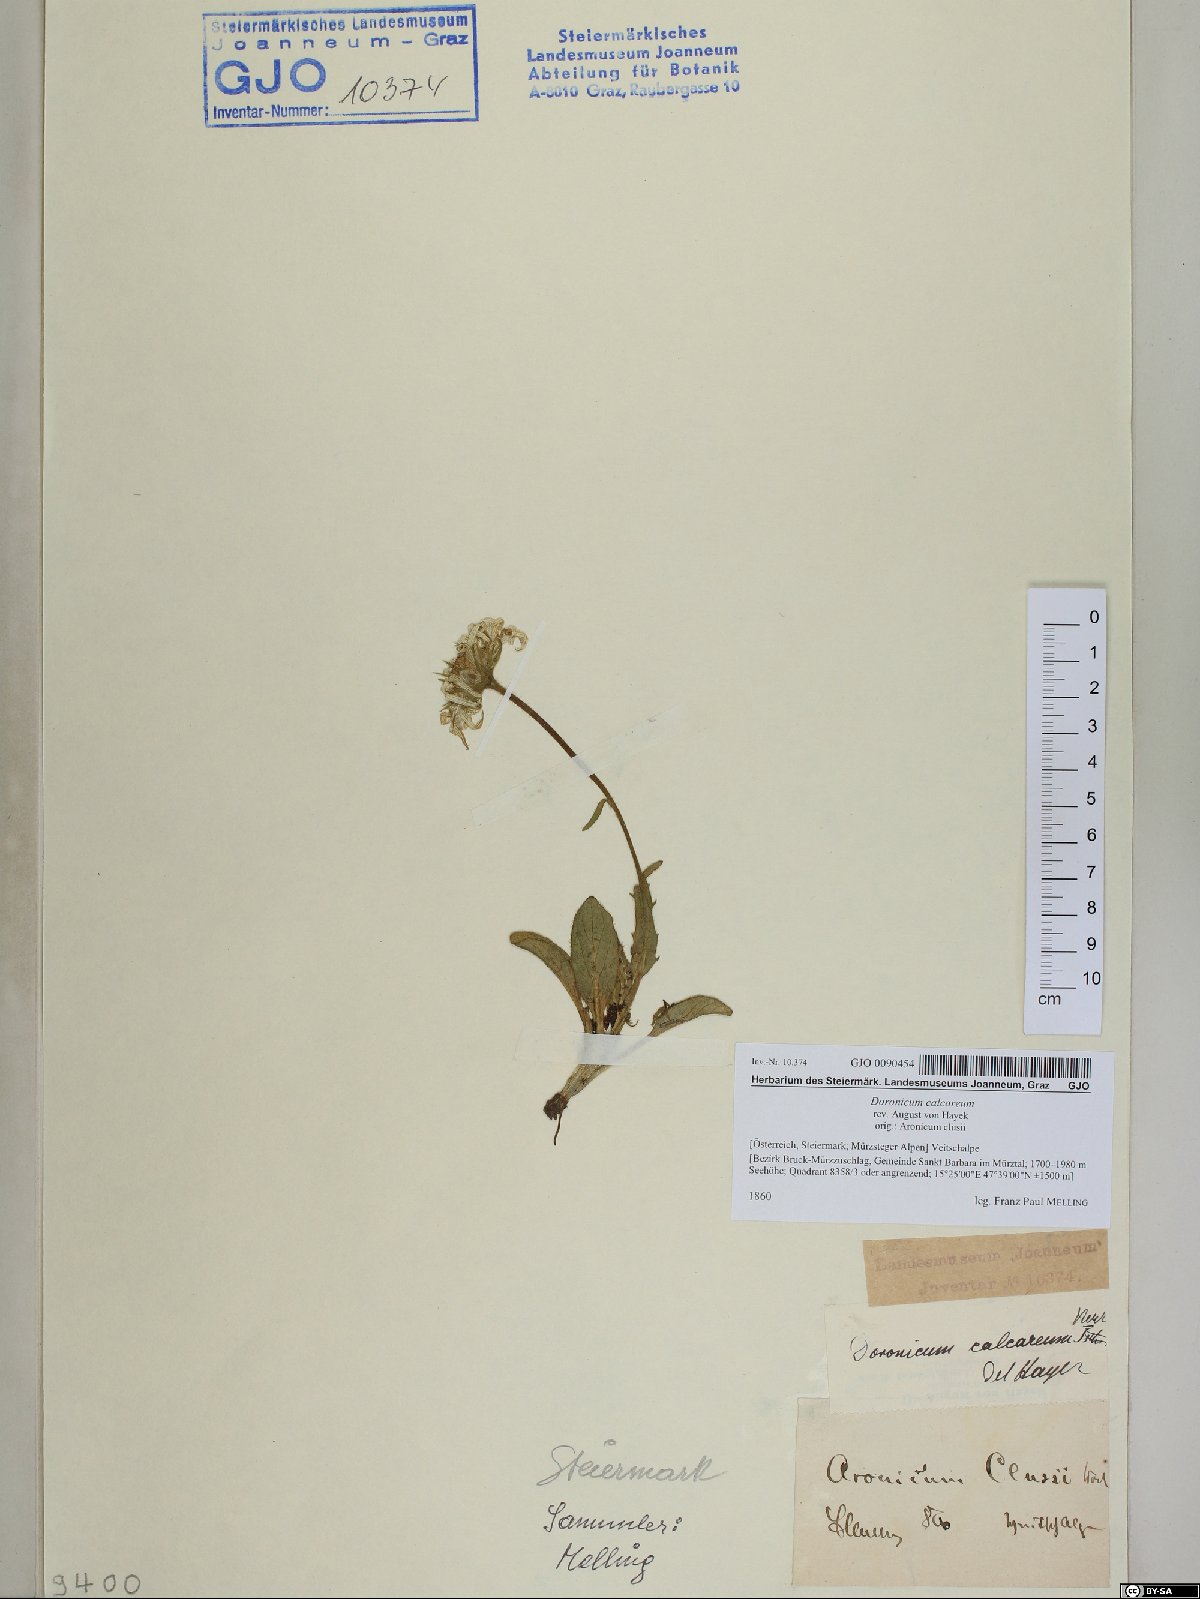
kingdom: Plantae
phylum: Tracheophyta
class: Magnoliopsida
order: Asterales
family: Asteraceae
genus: Doronicum
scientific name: Doronicum glaciale
